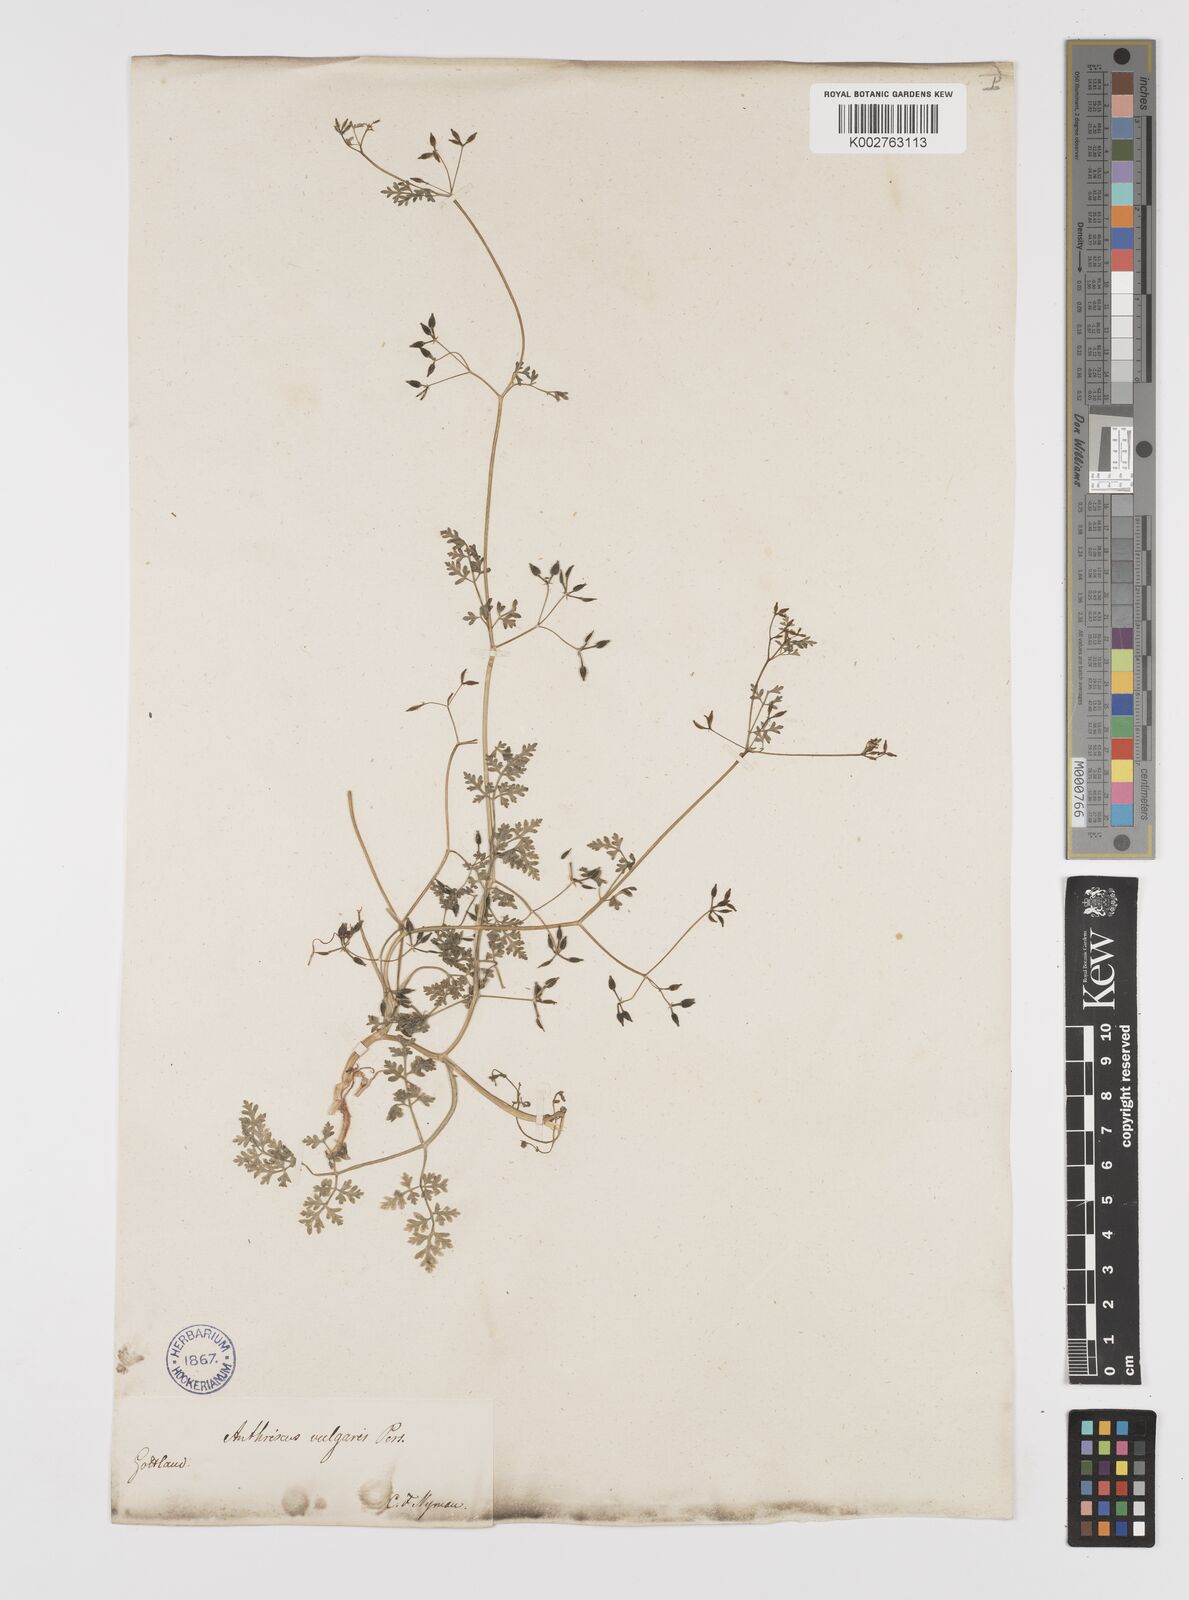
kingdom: Plantae
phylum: Tracheophyta
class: Magnoliopsida
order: Apiales
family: Apiaceae
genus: Anthriscus
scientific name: Anthriscus caucalis
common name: Bur chervil
